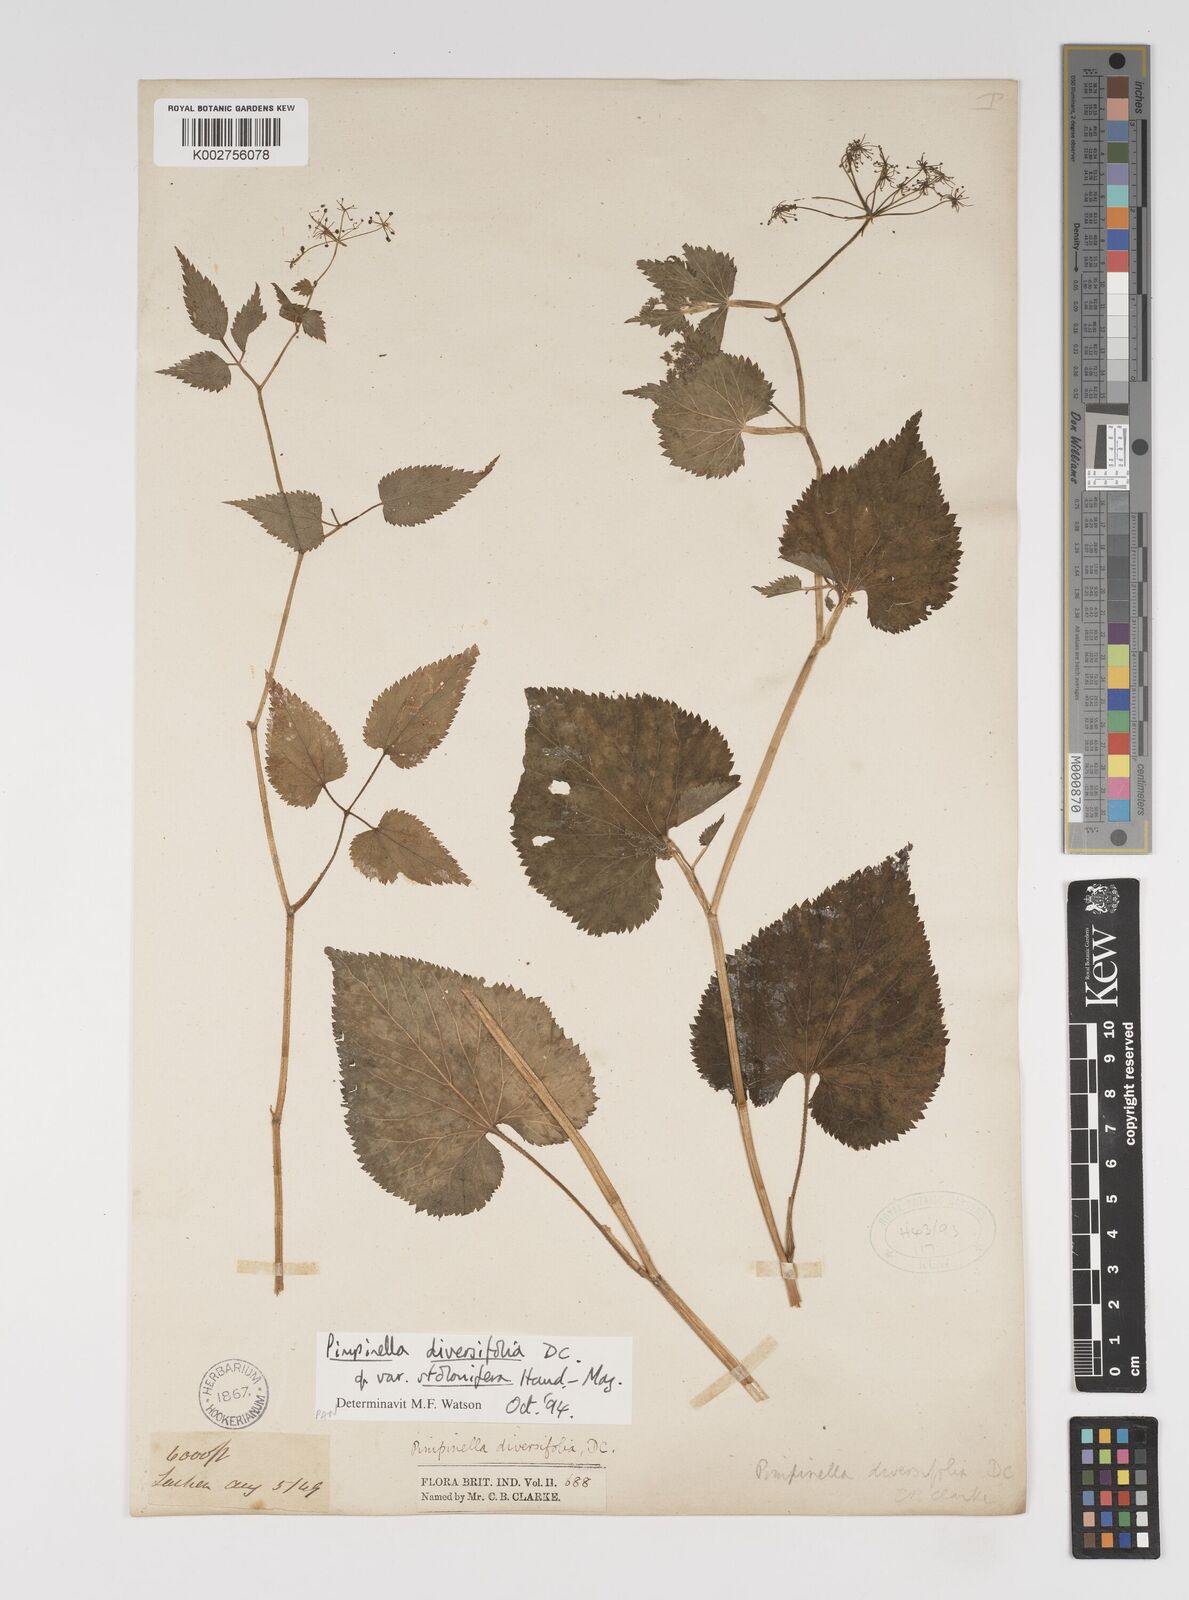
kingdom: Plantae
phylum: Tracheophyta
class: Magnoliopsida
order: Apiales
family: Apiaceae
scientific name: Apiaceae
